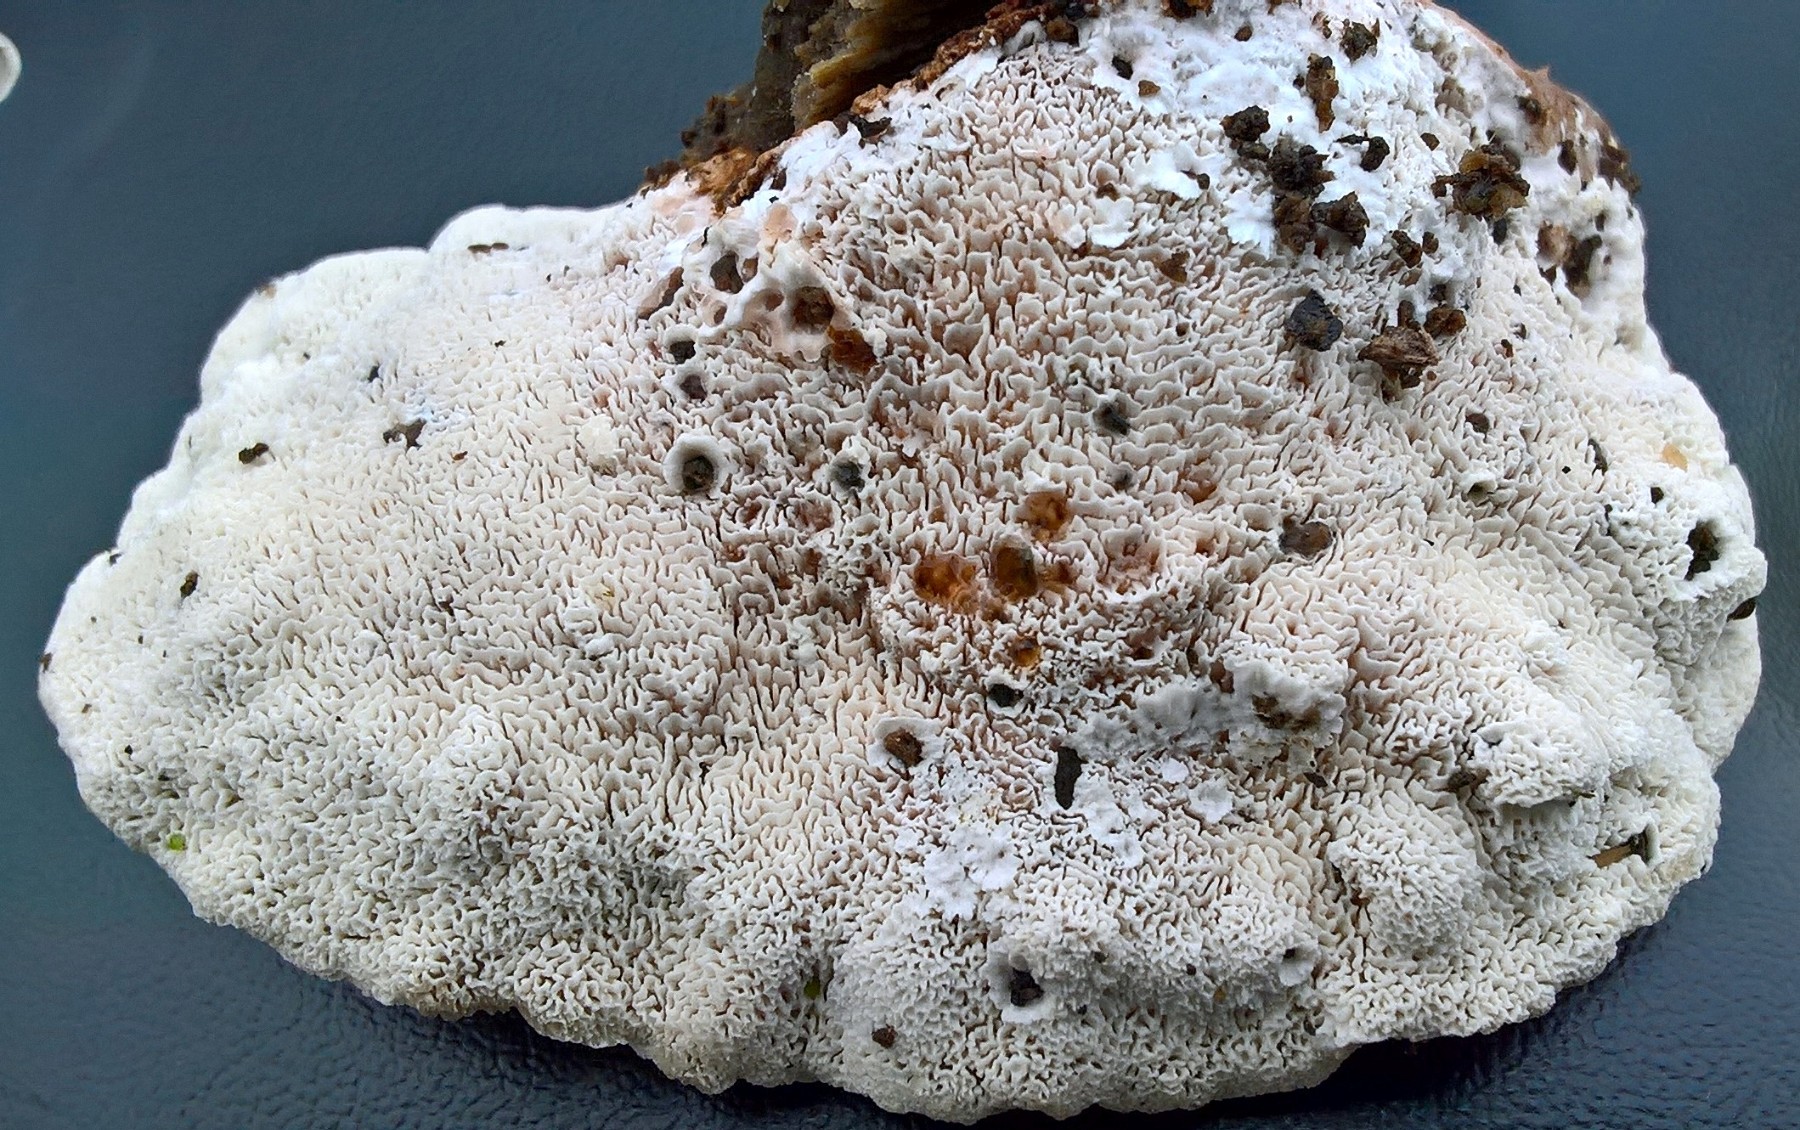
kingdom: Fungi
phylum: Basidiomycota
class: Agaricomycetes
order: Polyporales
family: Podoscyphaceae
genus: Abortiporus
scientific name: Abortiporus biennis
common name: rødmende pjalteporesvamp
